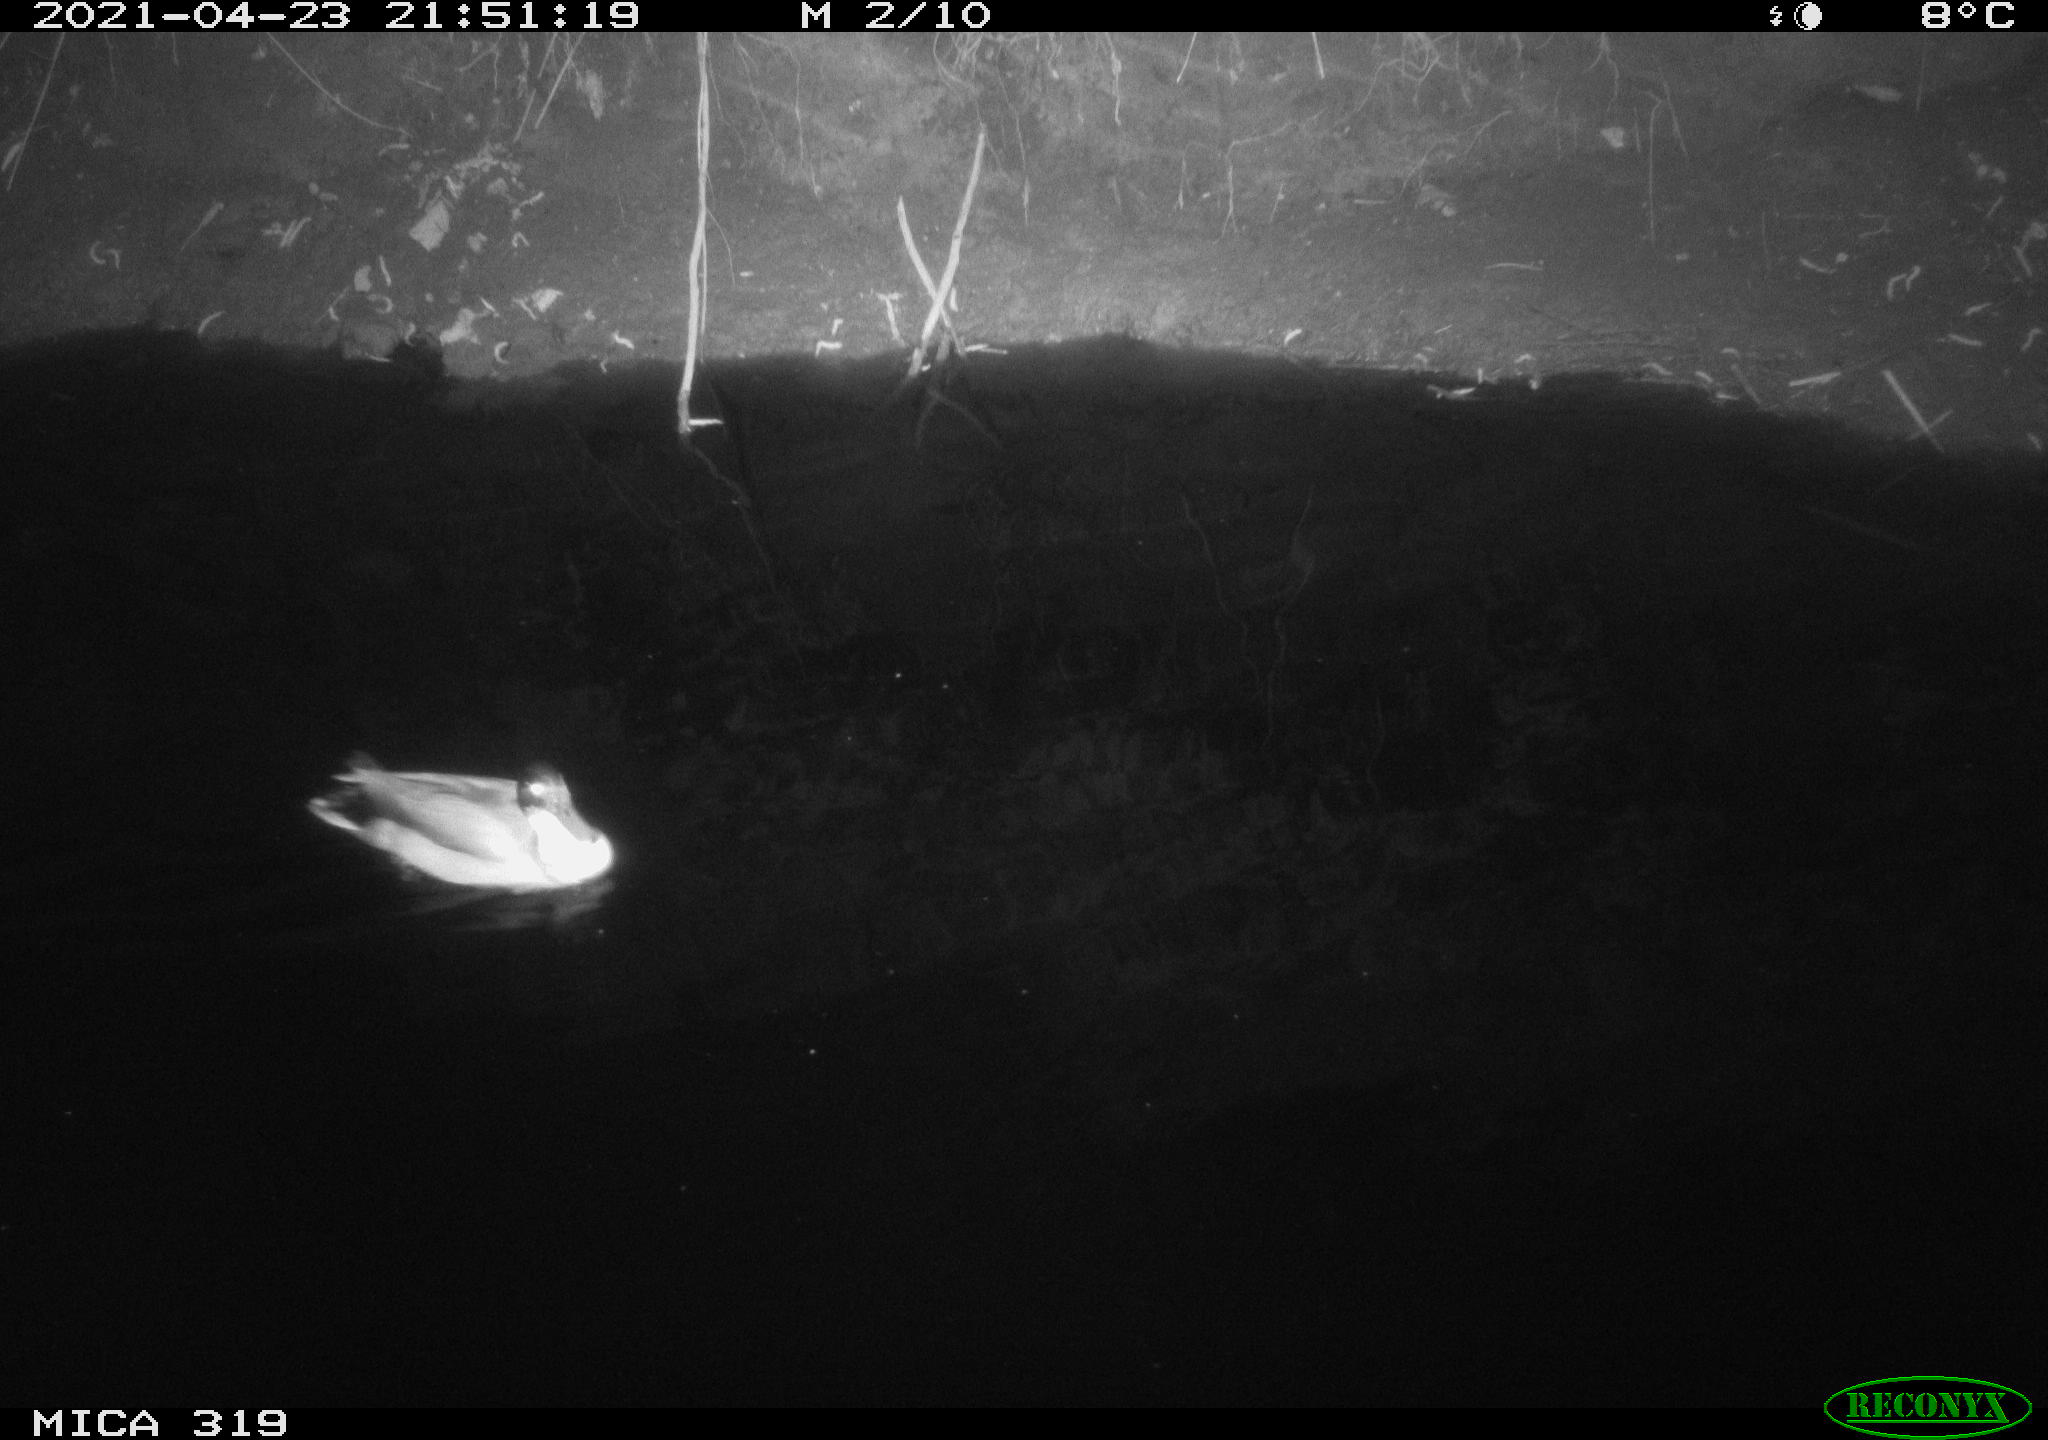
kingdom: Animalia
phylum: Chordata
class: Aves
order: Anseriformes
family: Anatidae
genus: Anas
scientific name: Anas platyrhynchos
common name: Mallard
